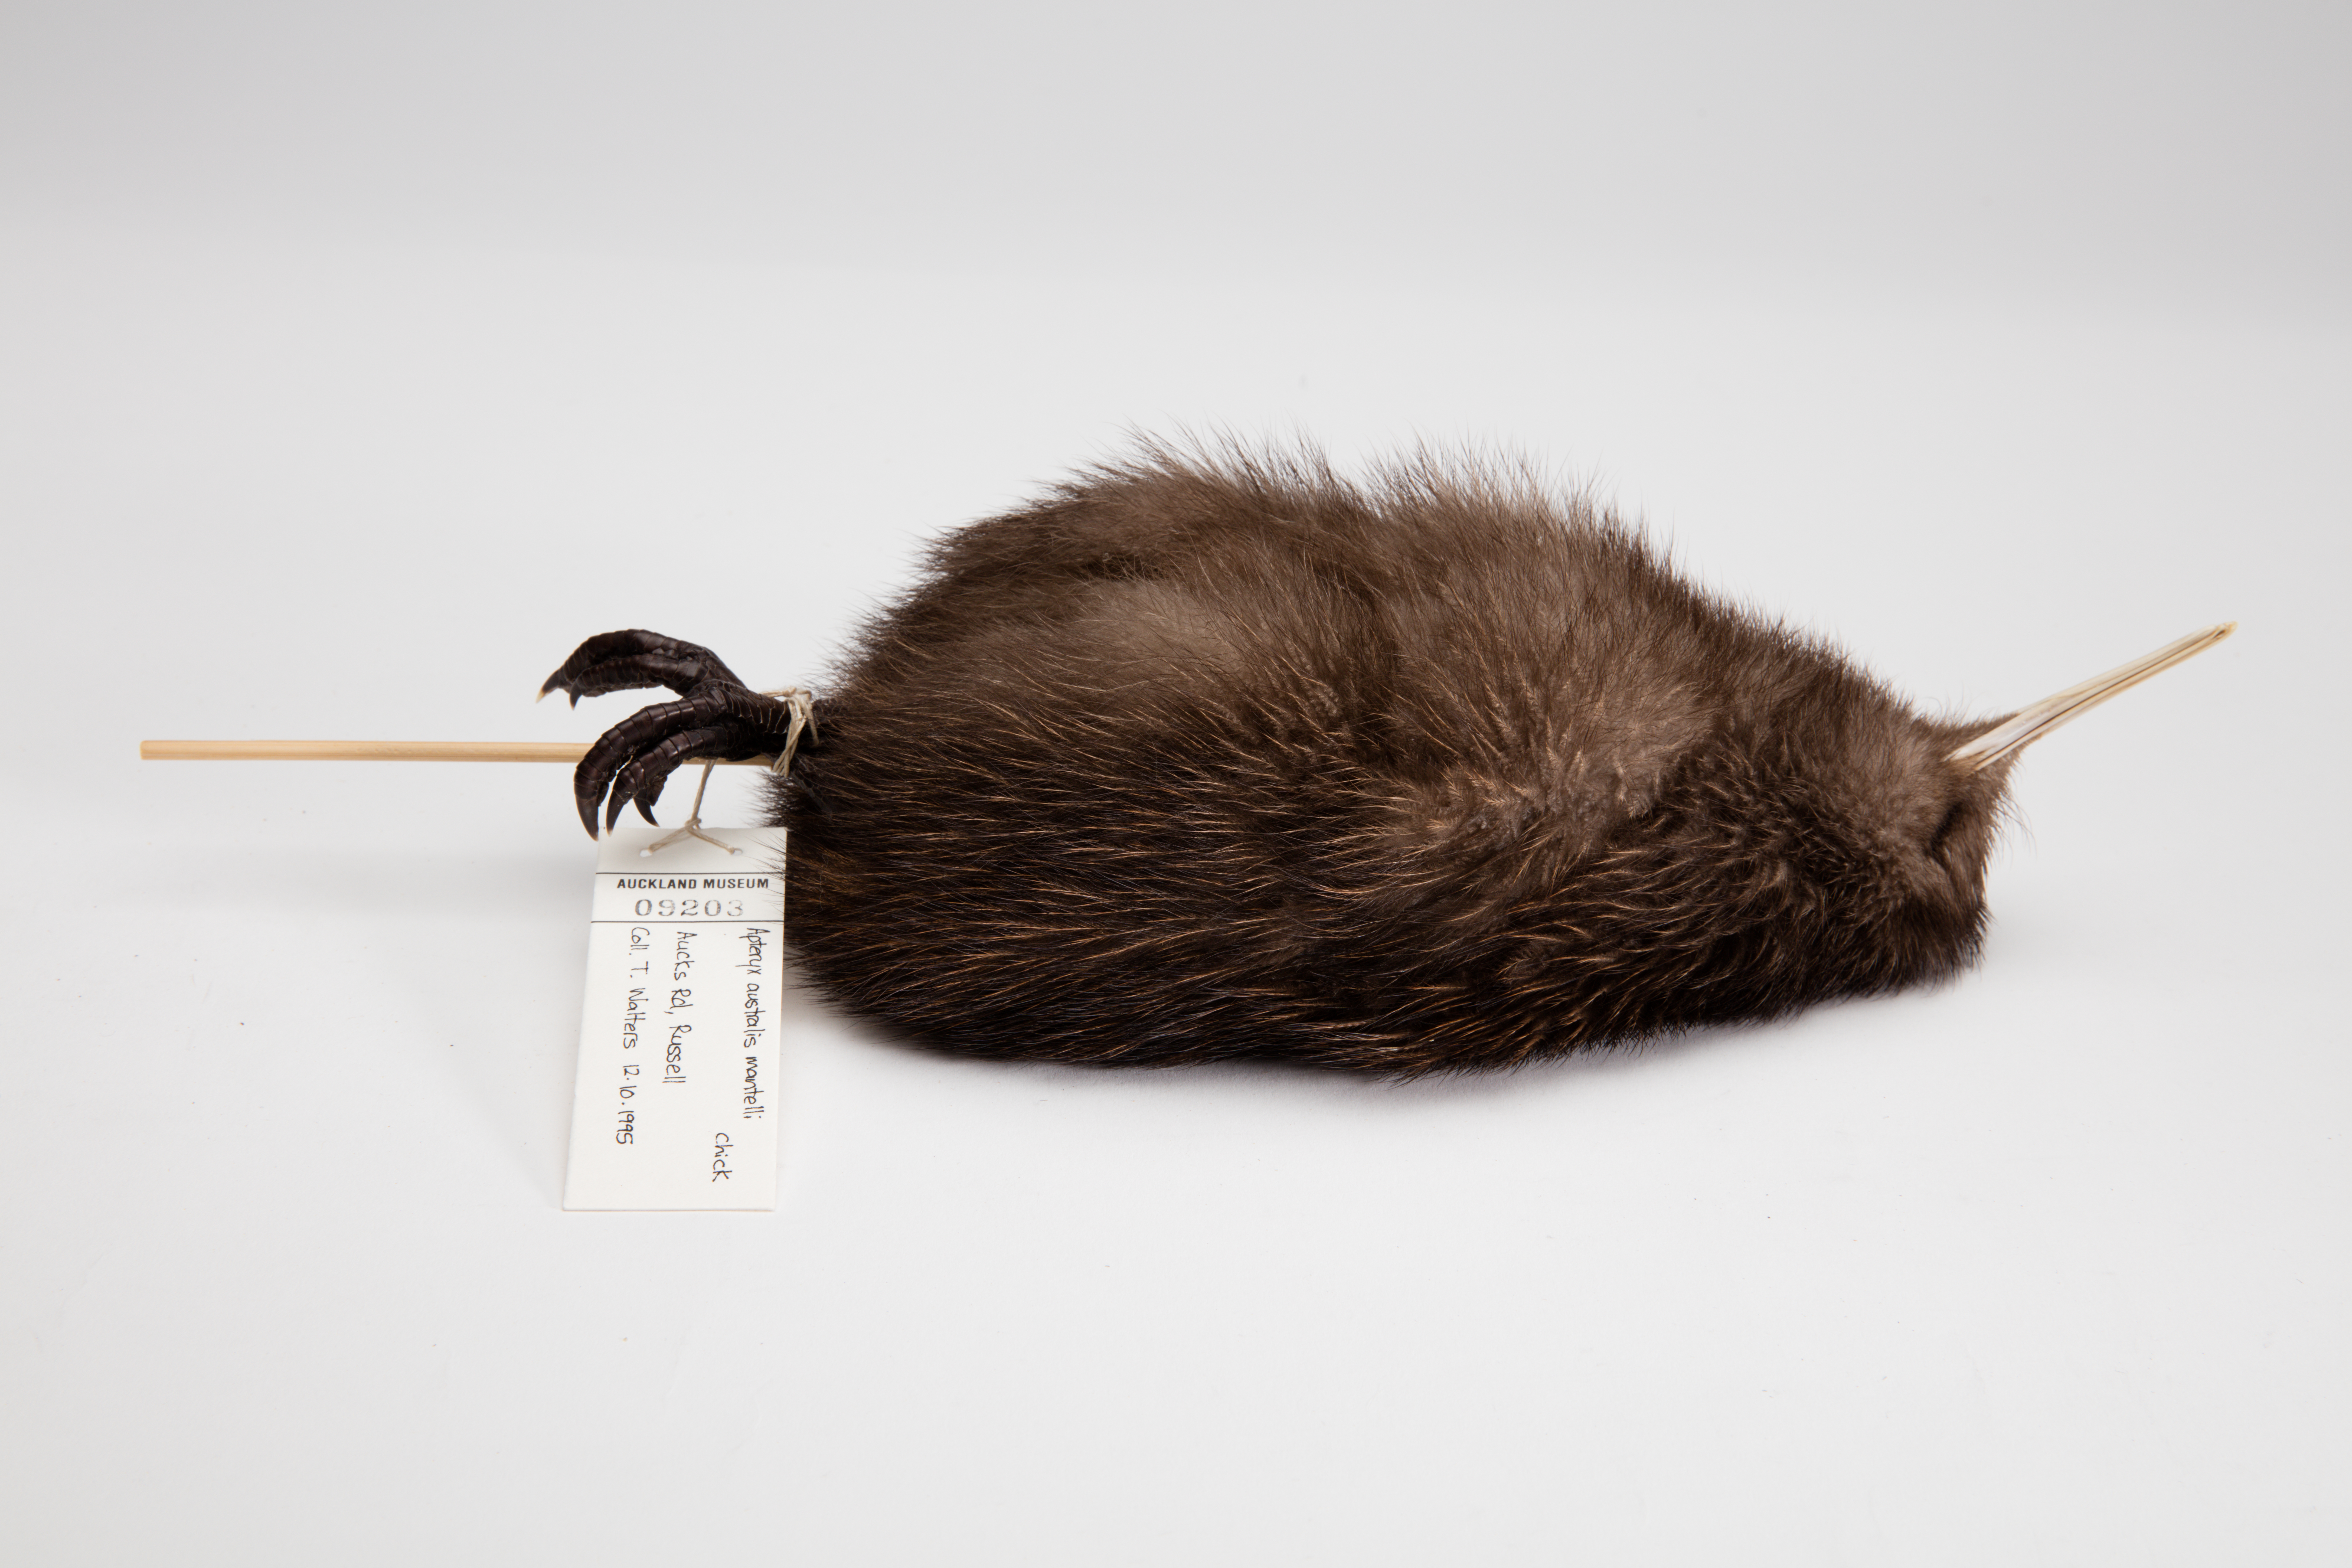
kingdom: Animalia
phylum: Chordata
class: Aves
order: Apterygiformes
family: Apterygidae
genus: Apteryx
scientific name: Apteryx mantelli
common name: North island brown kiwi
